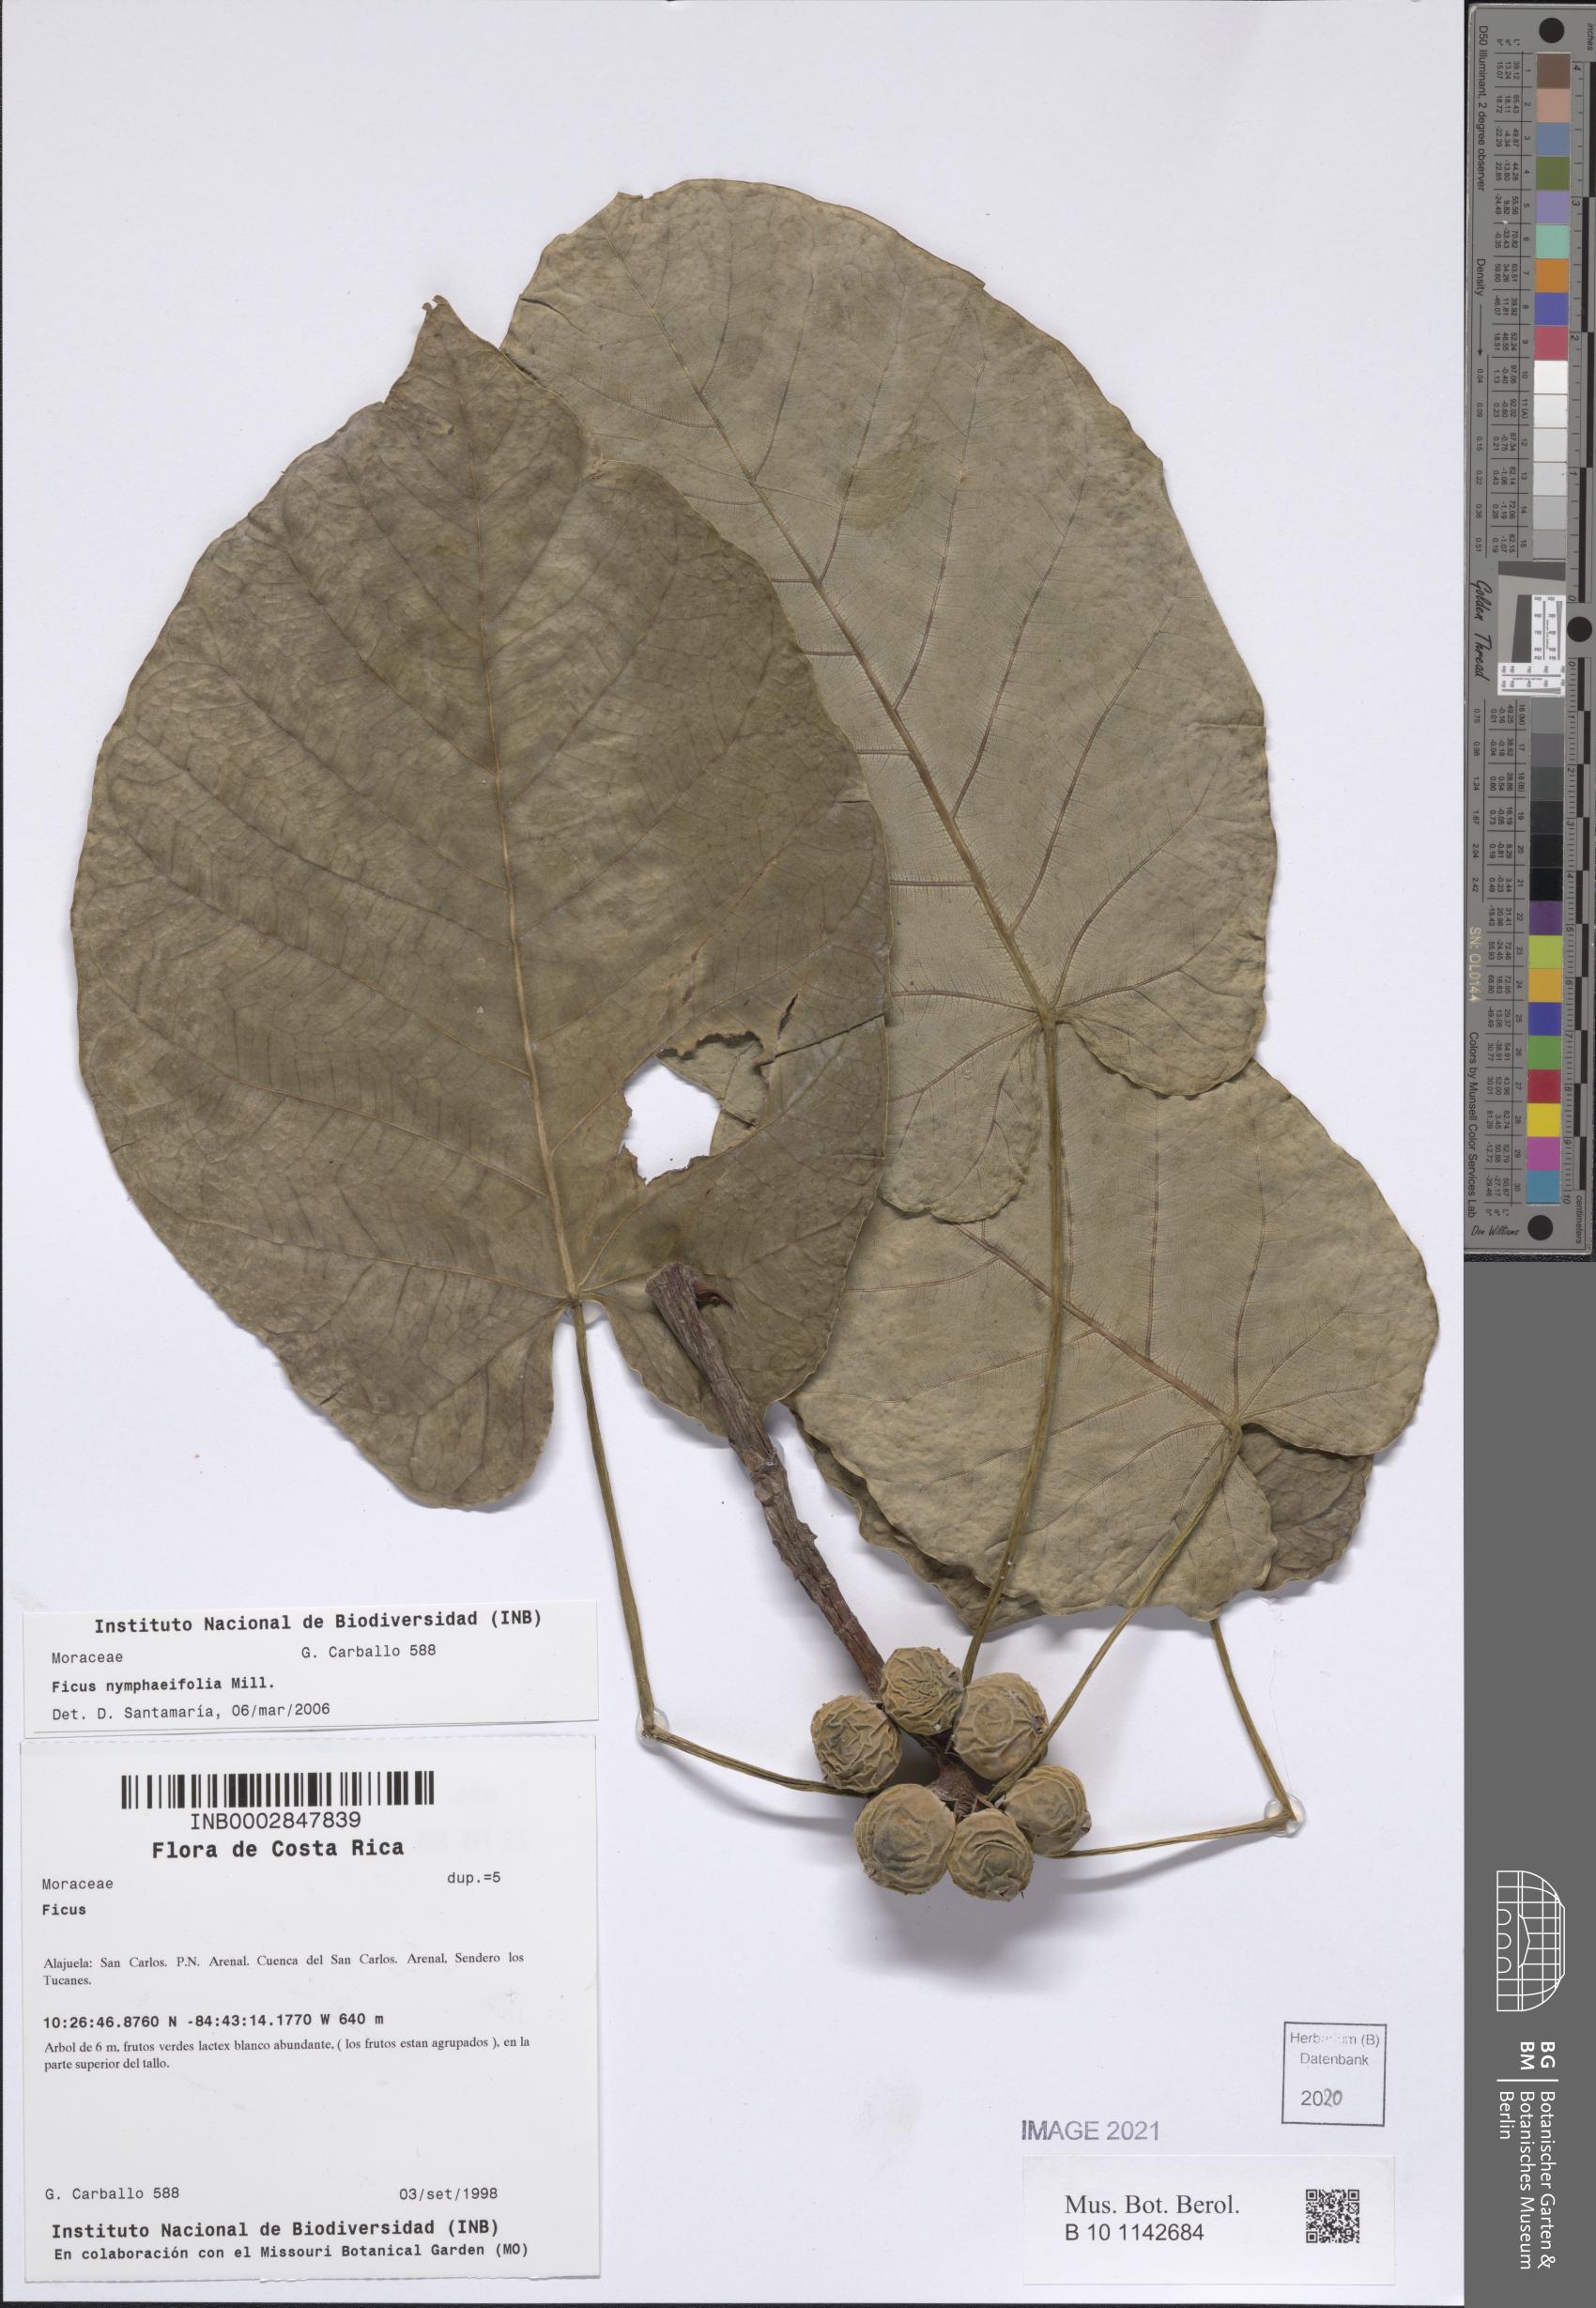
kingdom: Plantae
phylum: Tracheophyta
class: Magnoliopsida
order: Rosales
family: Moraceae
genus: Ficus
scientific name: Ficus nymphaeifolia
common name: Fig
